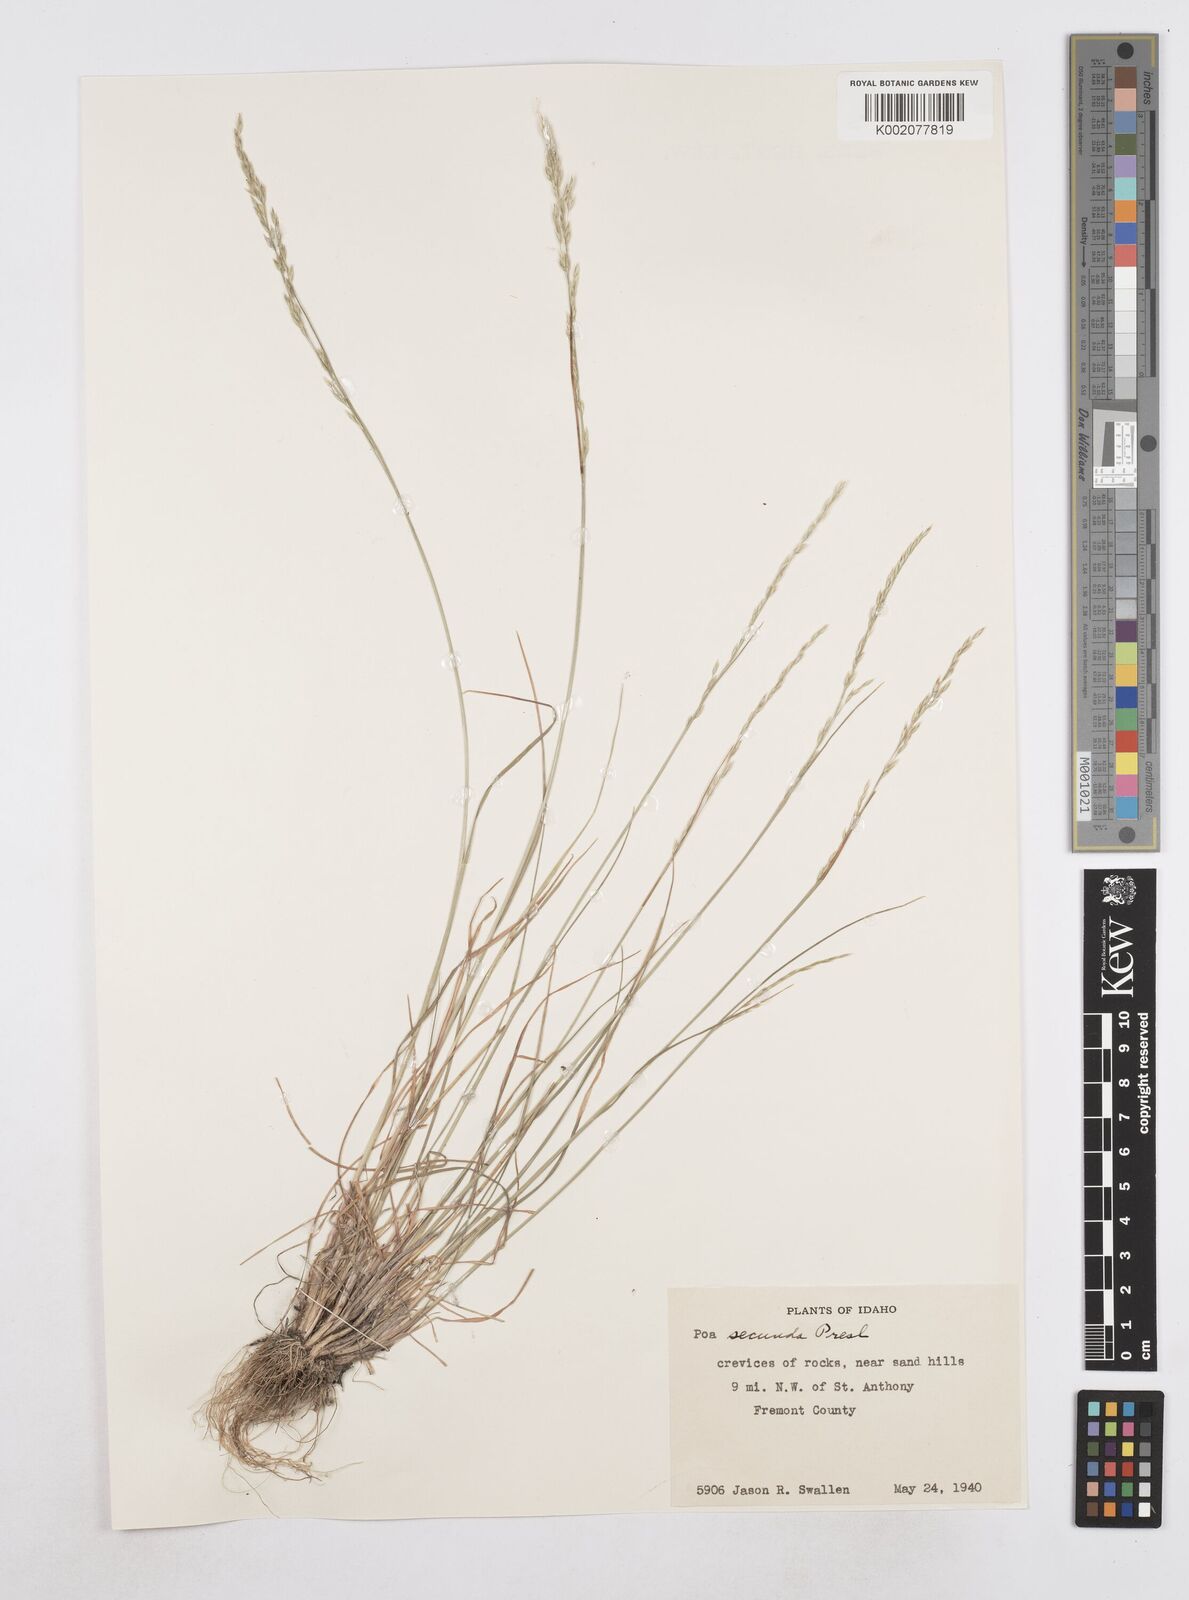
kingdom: Plantae
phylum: Tracheophyta
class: Liliopsida
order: Poales
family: Poaceae
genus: Poa
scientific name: Poa secunda
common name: Sandberg bluegrass
